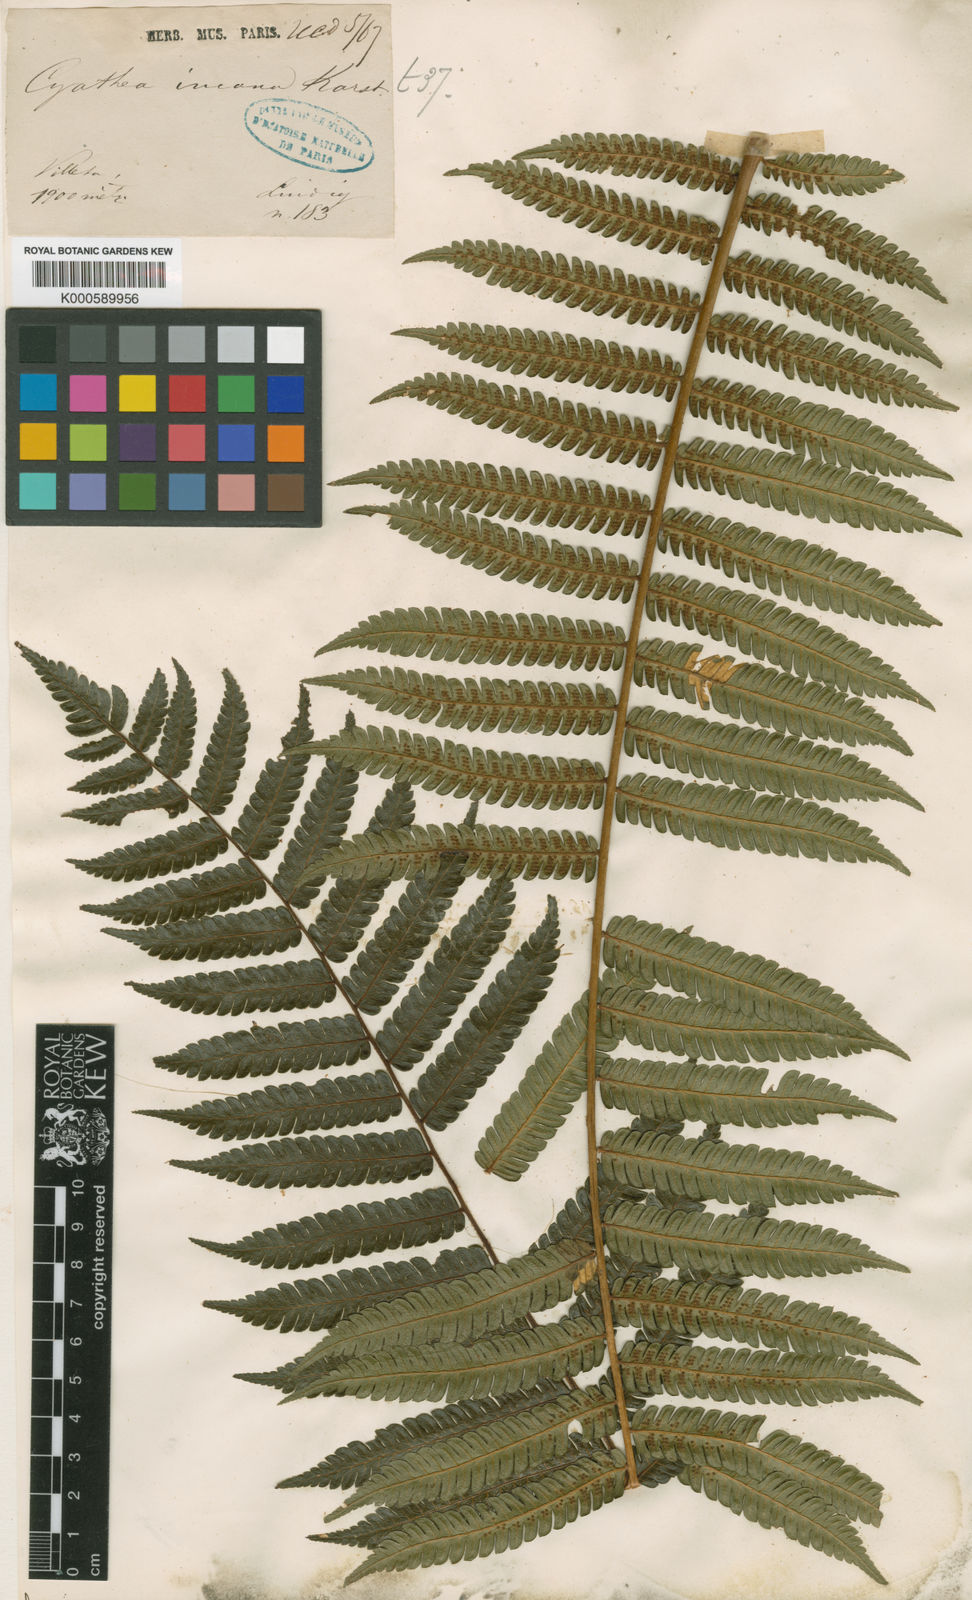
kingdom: Plantae
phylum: Tracheophyta
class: Polypodiopsida
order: Cyatheales
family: Cyatheaceae
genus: Alsophila
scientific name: Alsophila incana
